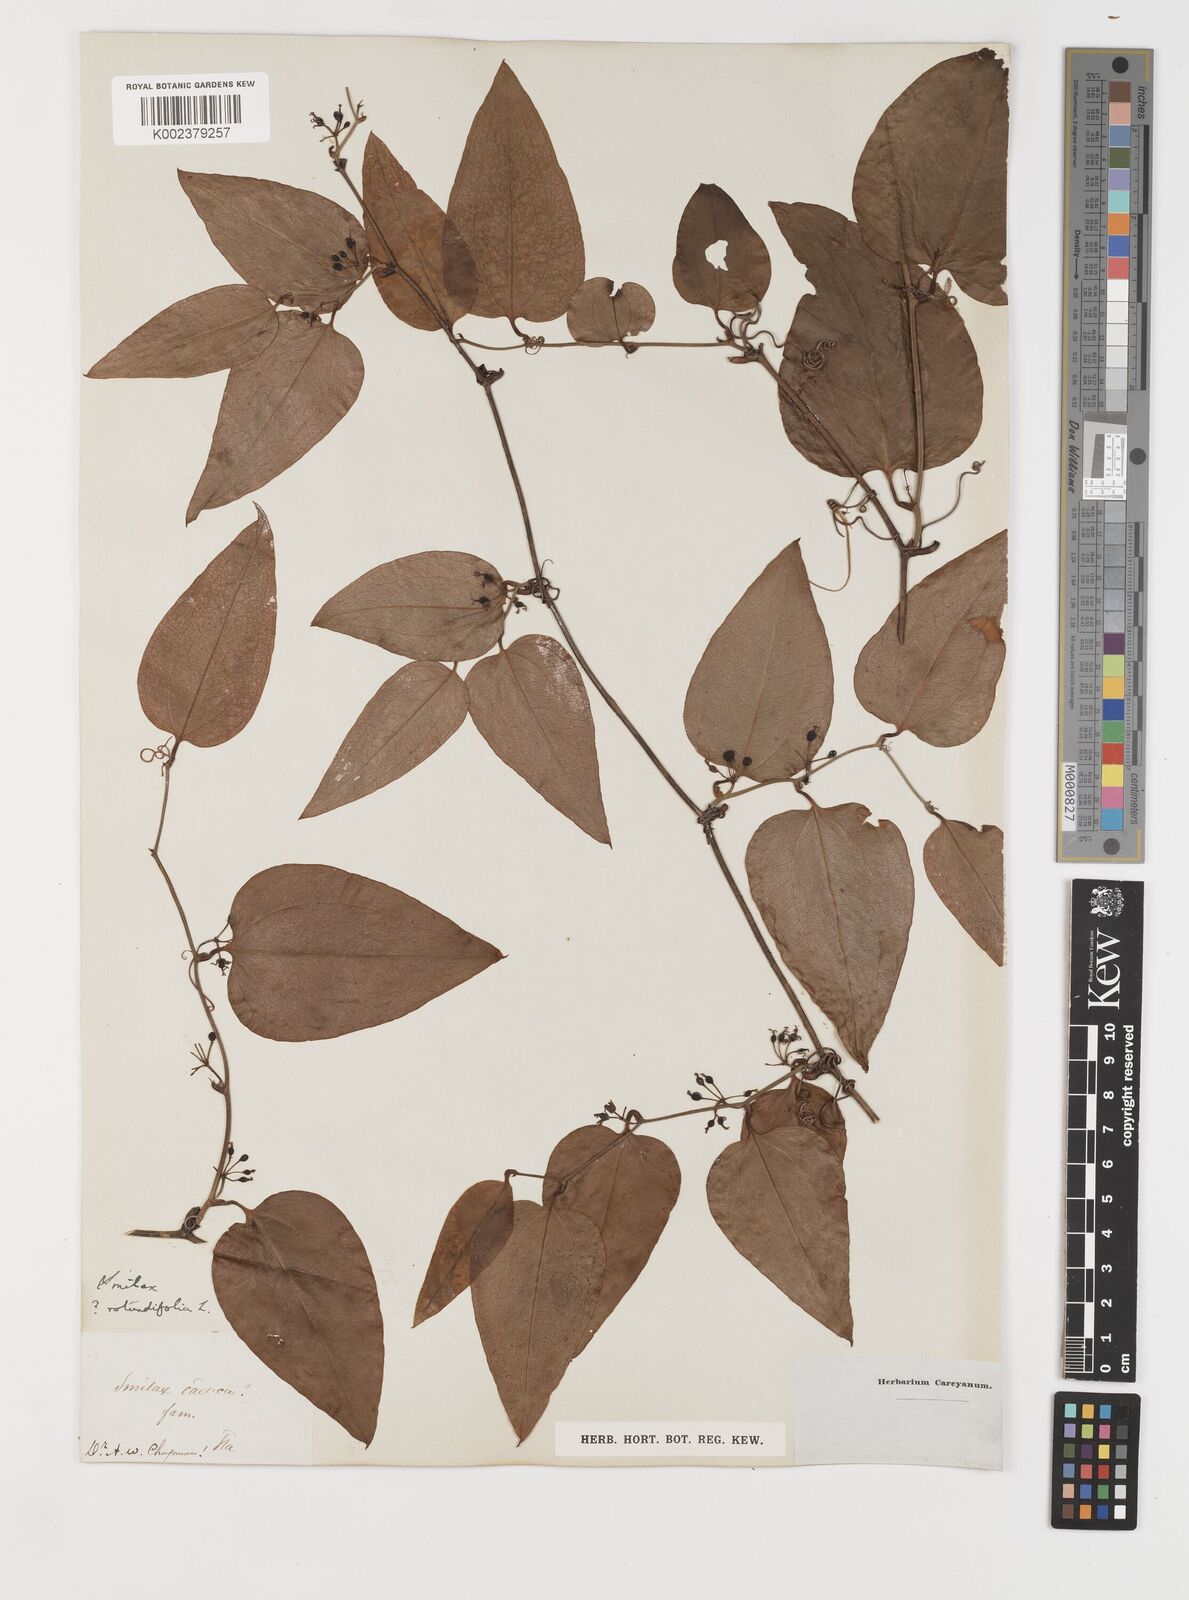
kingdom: Plantae
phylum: Tracheophyta
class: Liliopsida
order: Liliales
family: Smilacaceae
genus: Smilax
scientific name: Smilax rotundifolia
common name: Bullbriar
